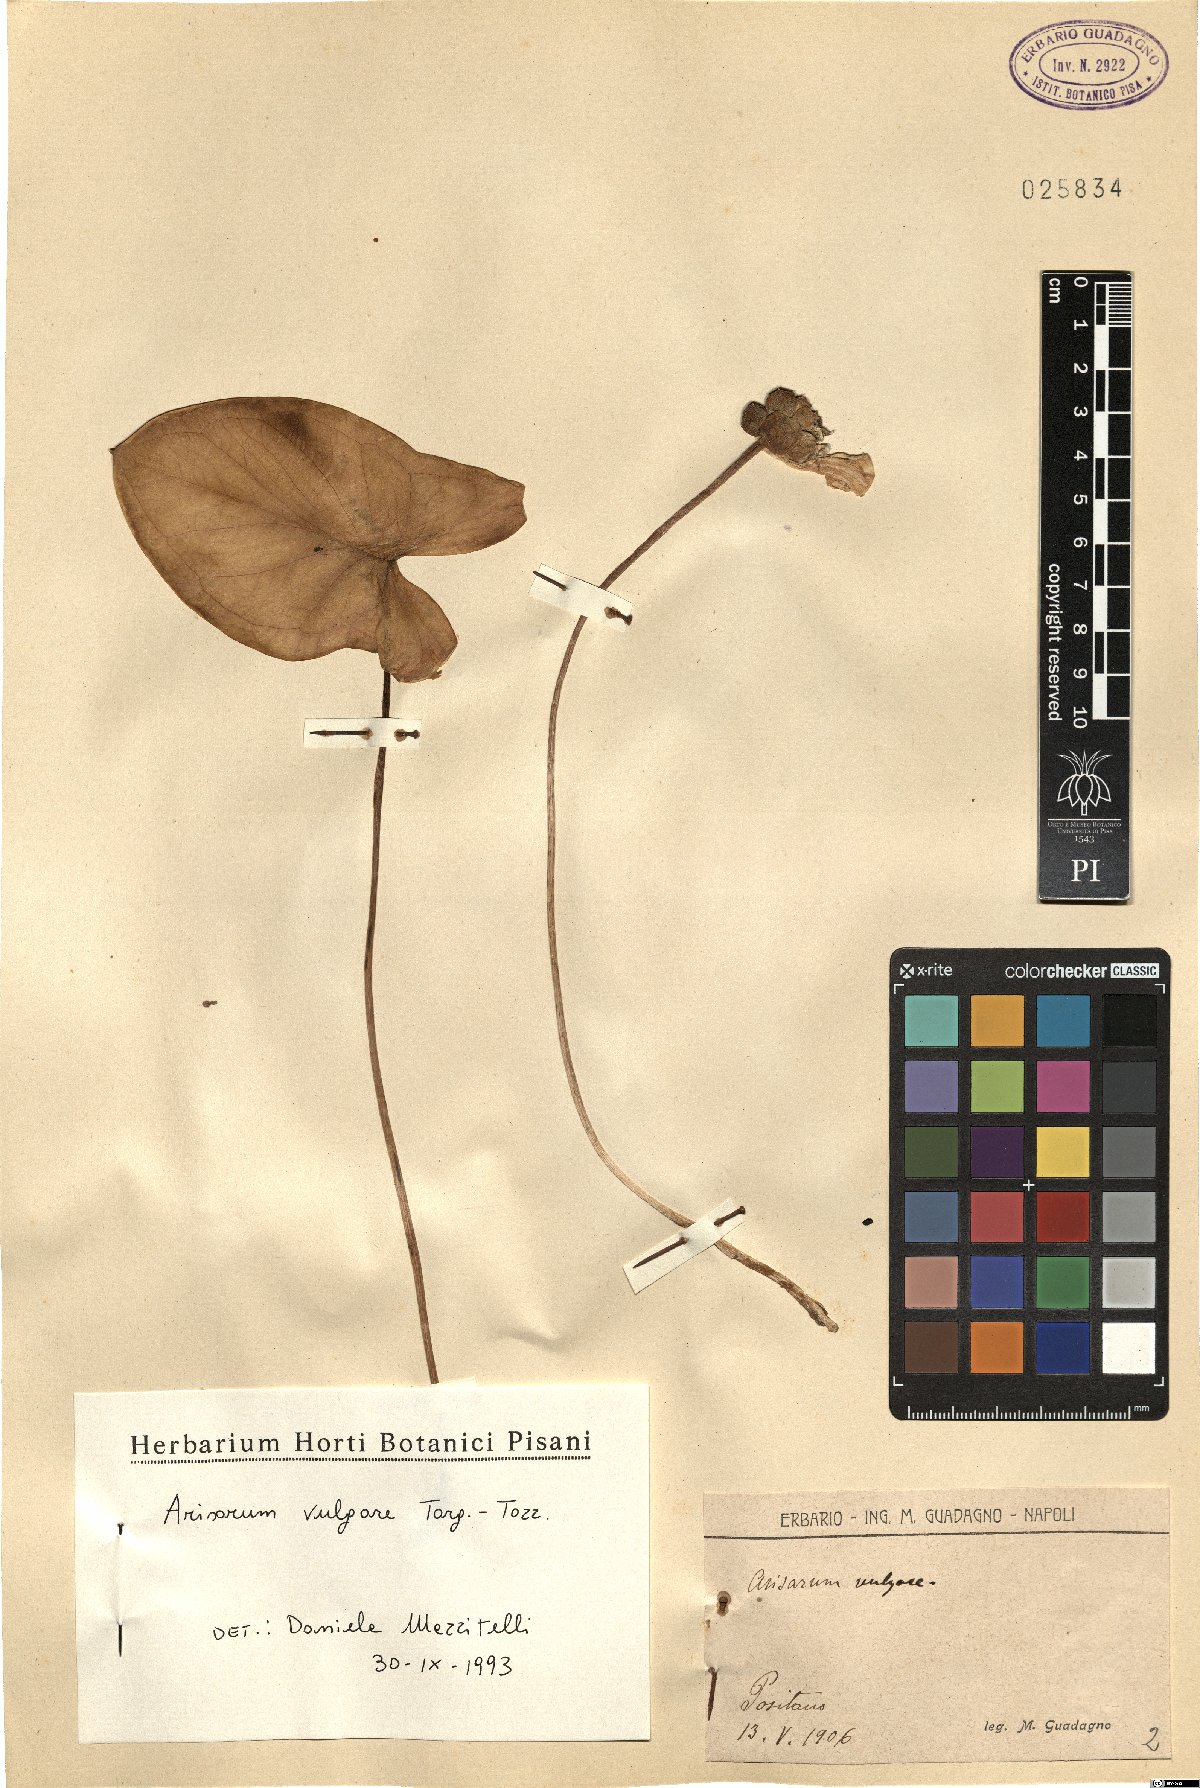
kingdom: Plantae
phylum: Tracheophyta
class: Liliopsida
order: Alismatales
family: Araceae
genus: Arisarum
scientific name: Arisarum vulgare
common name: Common arisarum
